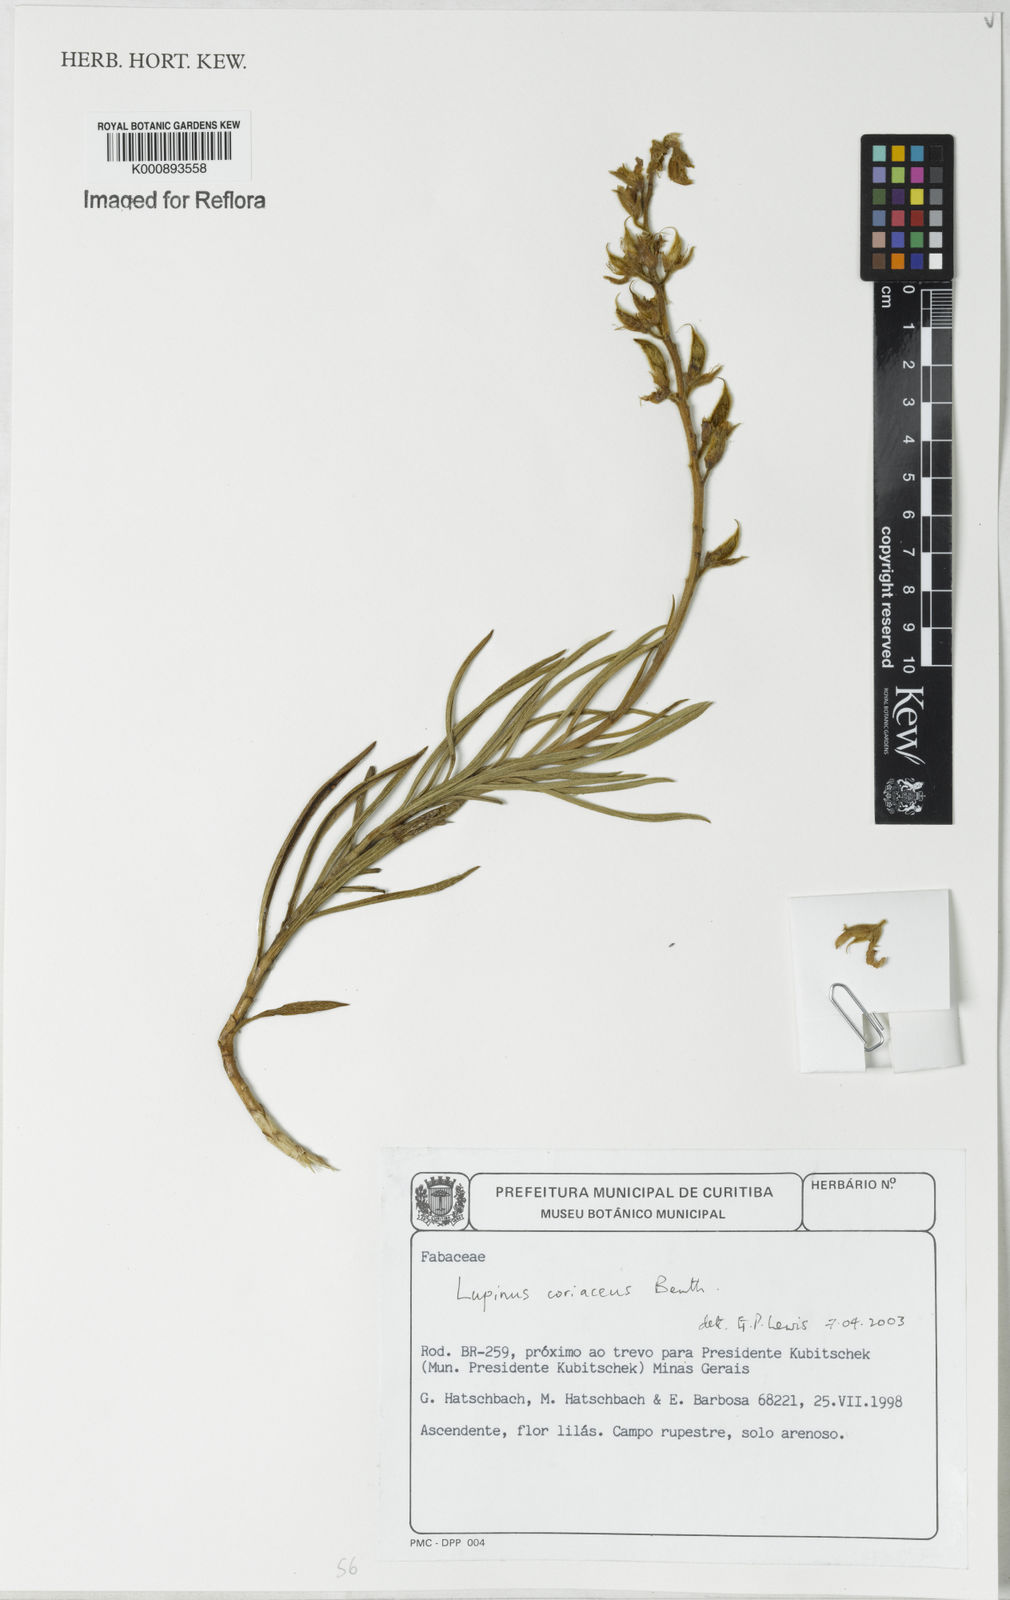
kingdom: Plantae
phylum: Tracheophyta
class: Magnoliopsida
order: Fabales
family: Fabaceae
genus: Lupinus
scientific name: Lupinus coriaceus
